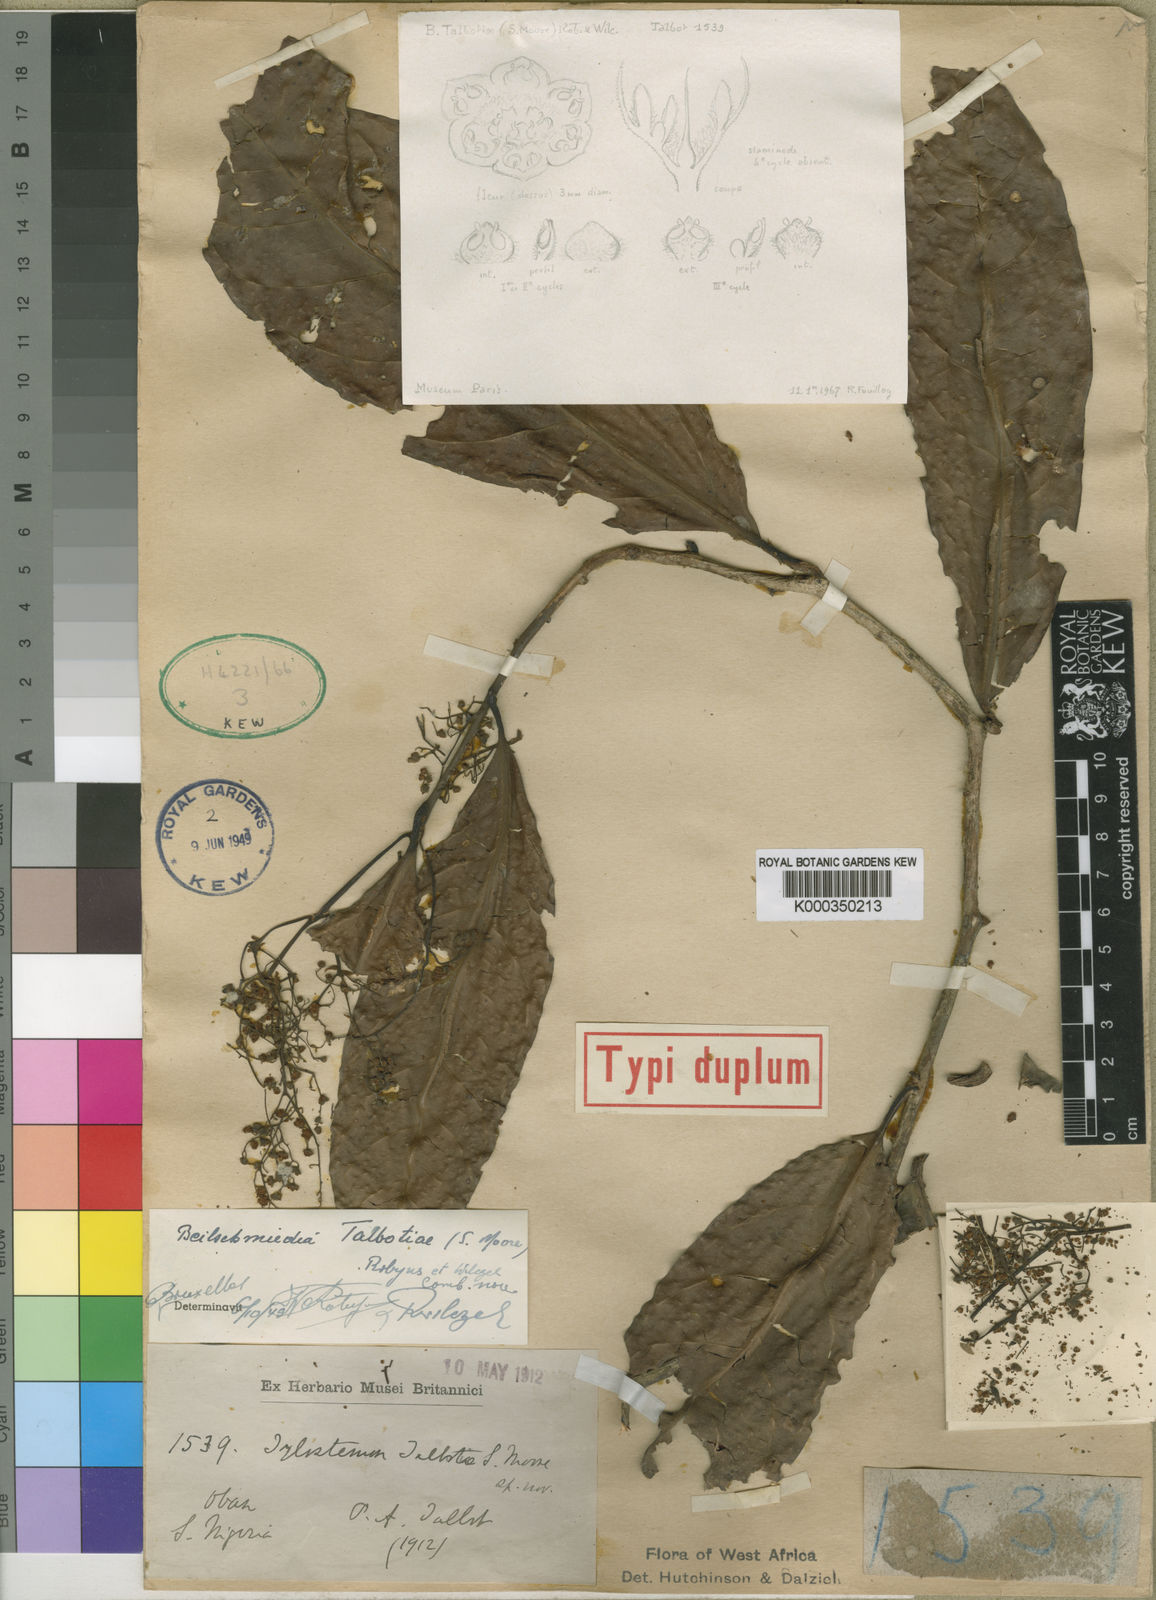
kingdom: Plantae
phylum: Tracheophyta
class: Magnoliopsida
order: Laurales
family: Lauraceae
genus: Beilschmiedia
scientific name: Beilschmiedia talbotiae
